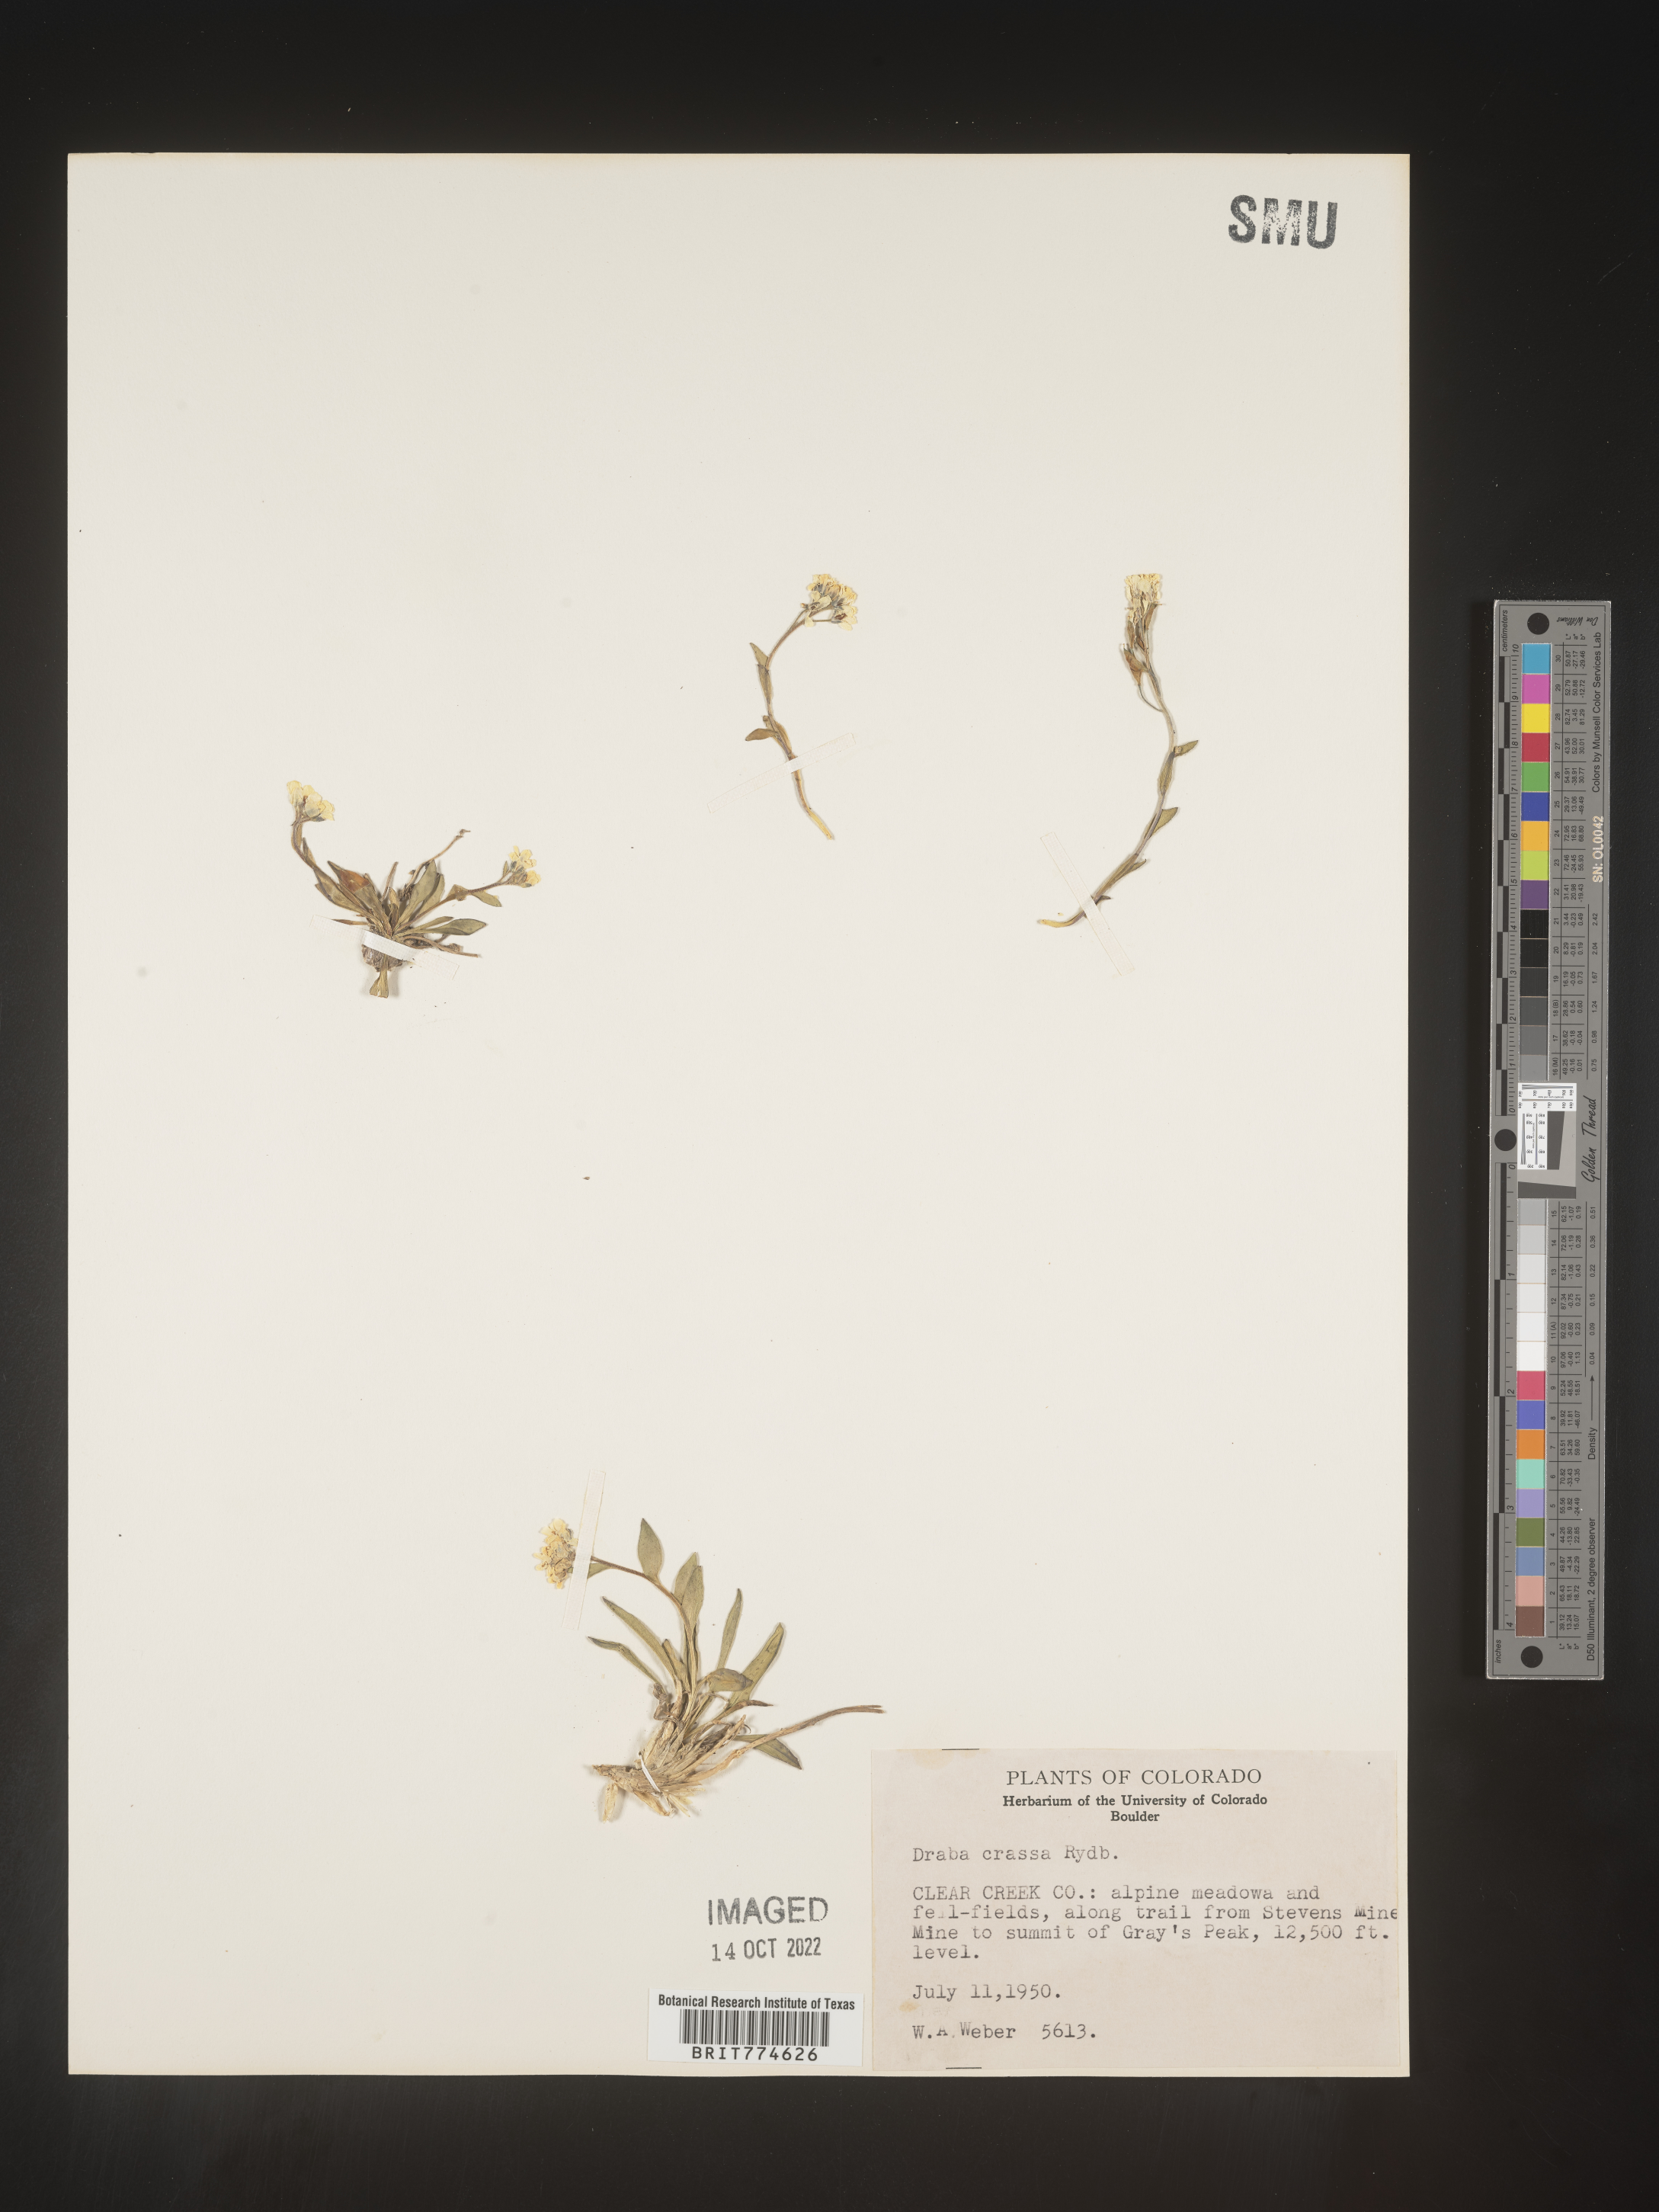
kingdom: Plantae
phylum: Tracheophyta
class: Magnoliopsida
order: Brassicales
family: Brassicaceae
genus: Draba
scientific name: Draba
